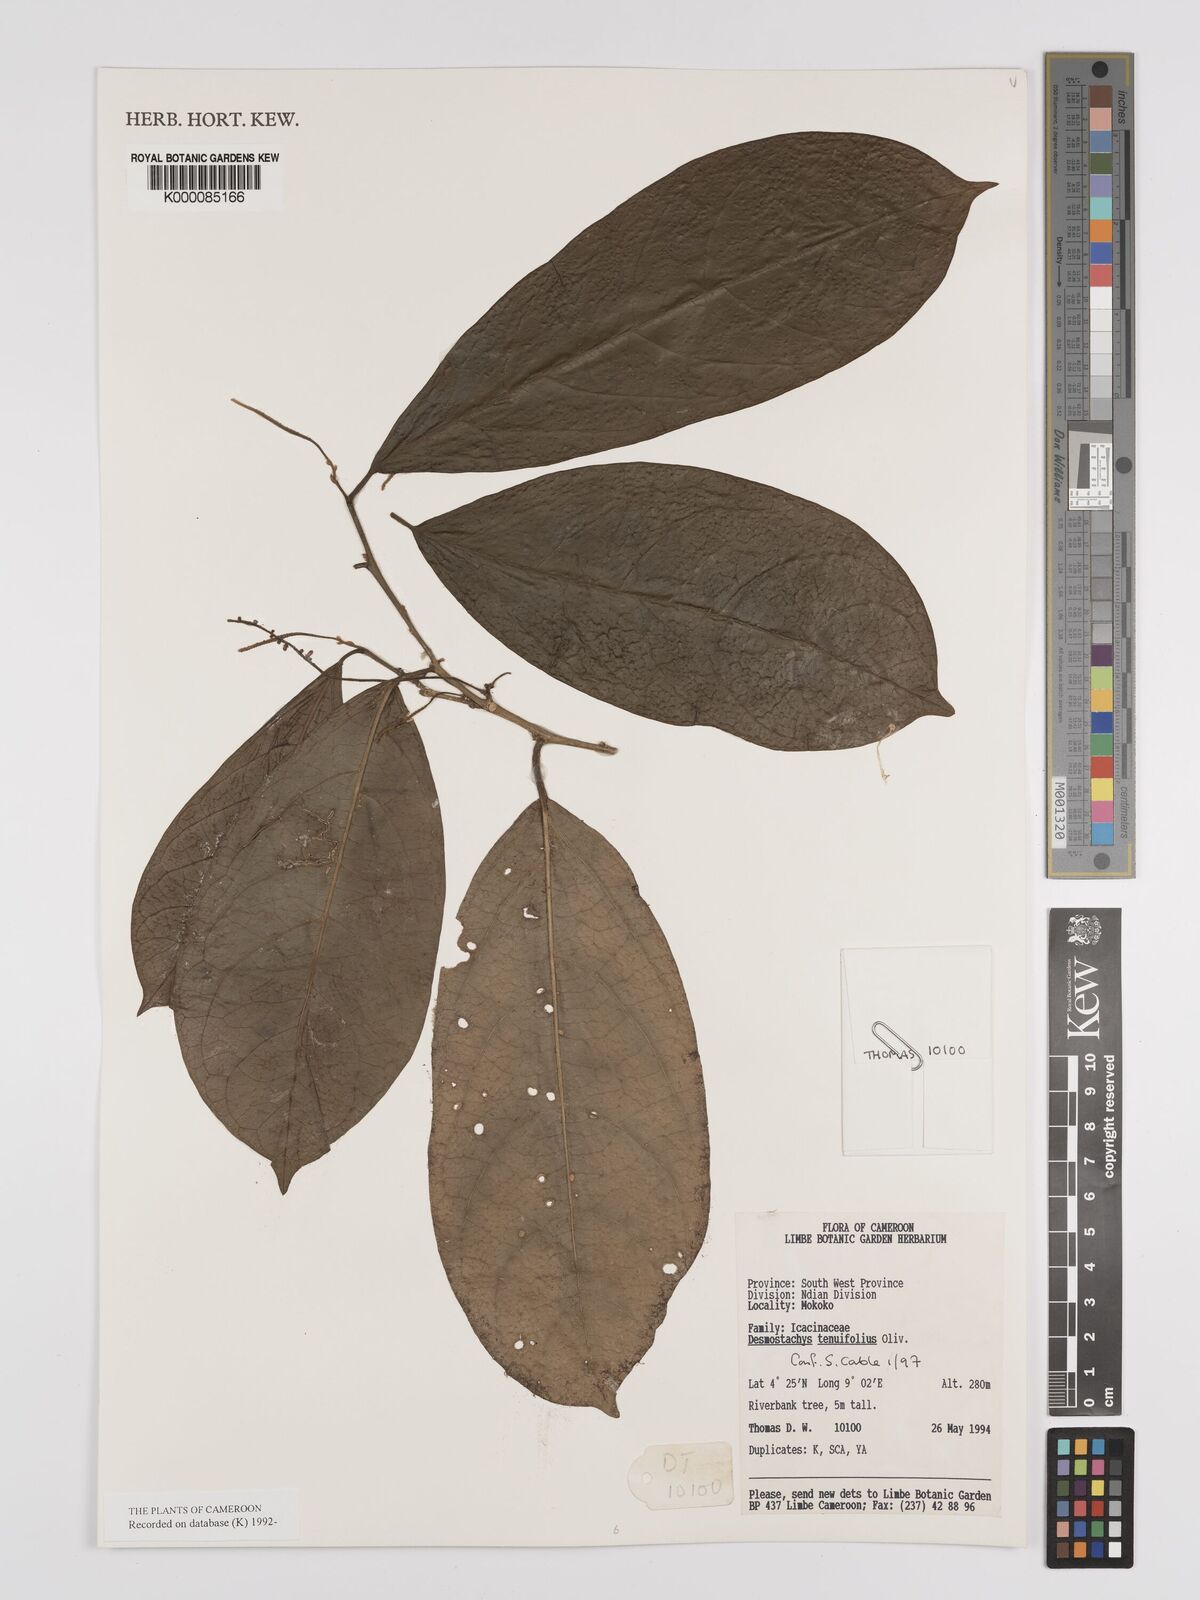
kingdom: Plantae
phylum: Tracheophyta
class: Magnoliopsida
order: Icacinales
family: Icacinaceae
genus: Vadensea
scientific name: Vadensea tenuifolia
